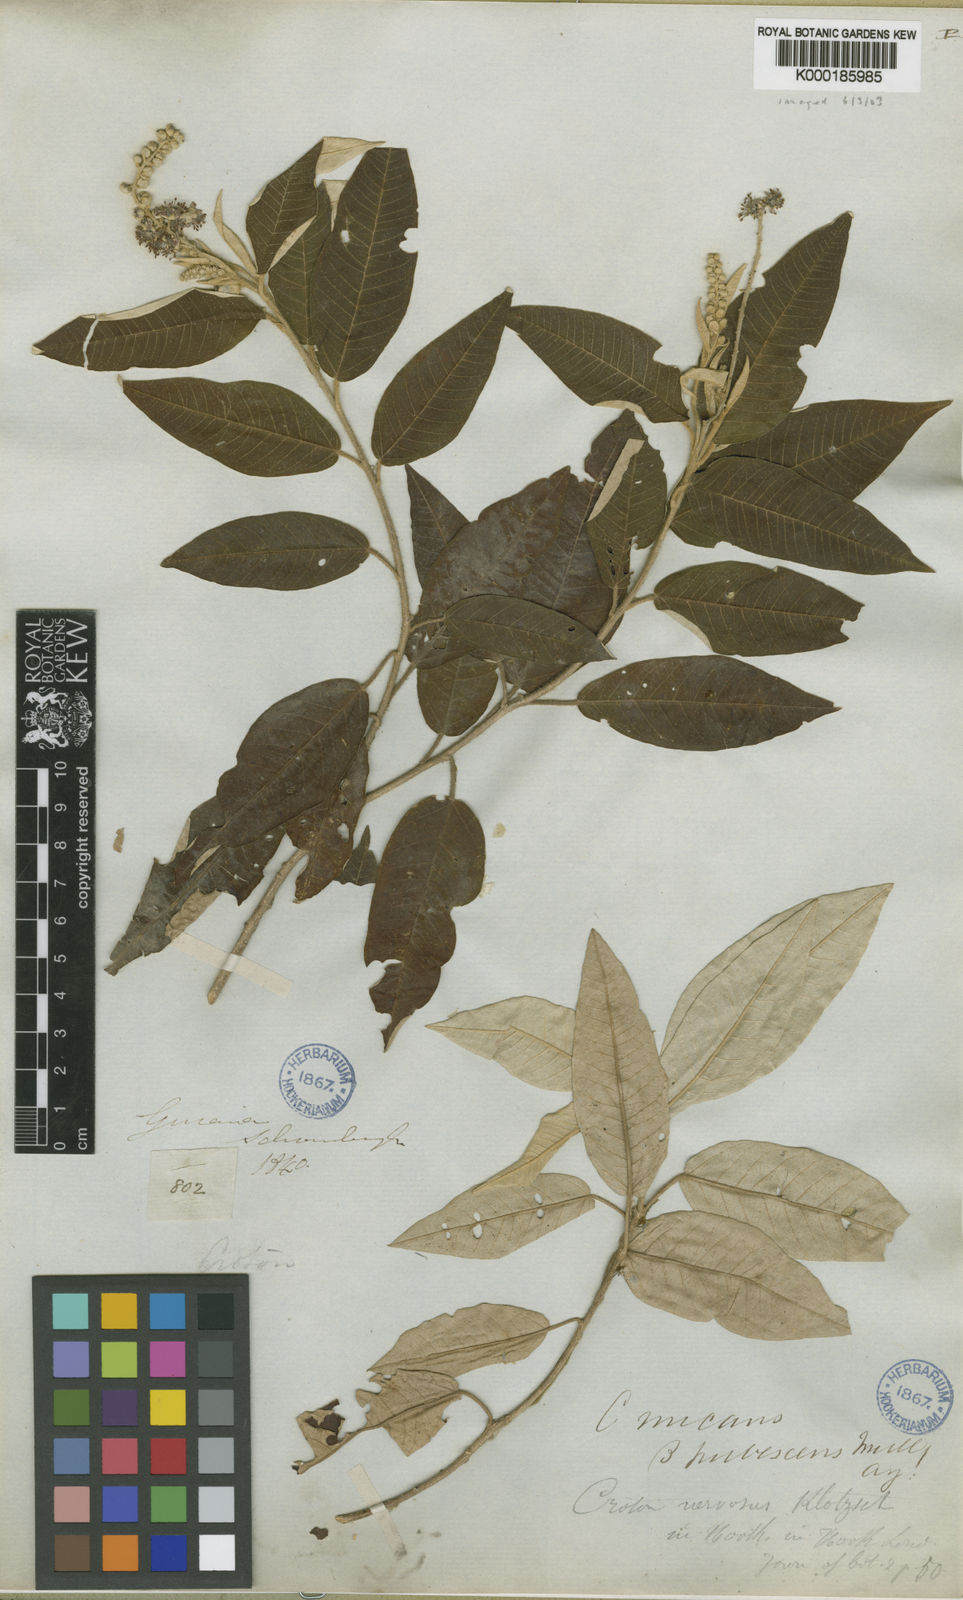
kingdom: Plantae
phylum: Tracheophyta
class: Magnoliopsida
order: Malpighiales
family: Euphorbiaceae
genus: Croton
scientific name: Croton argyrophyllus
